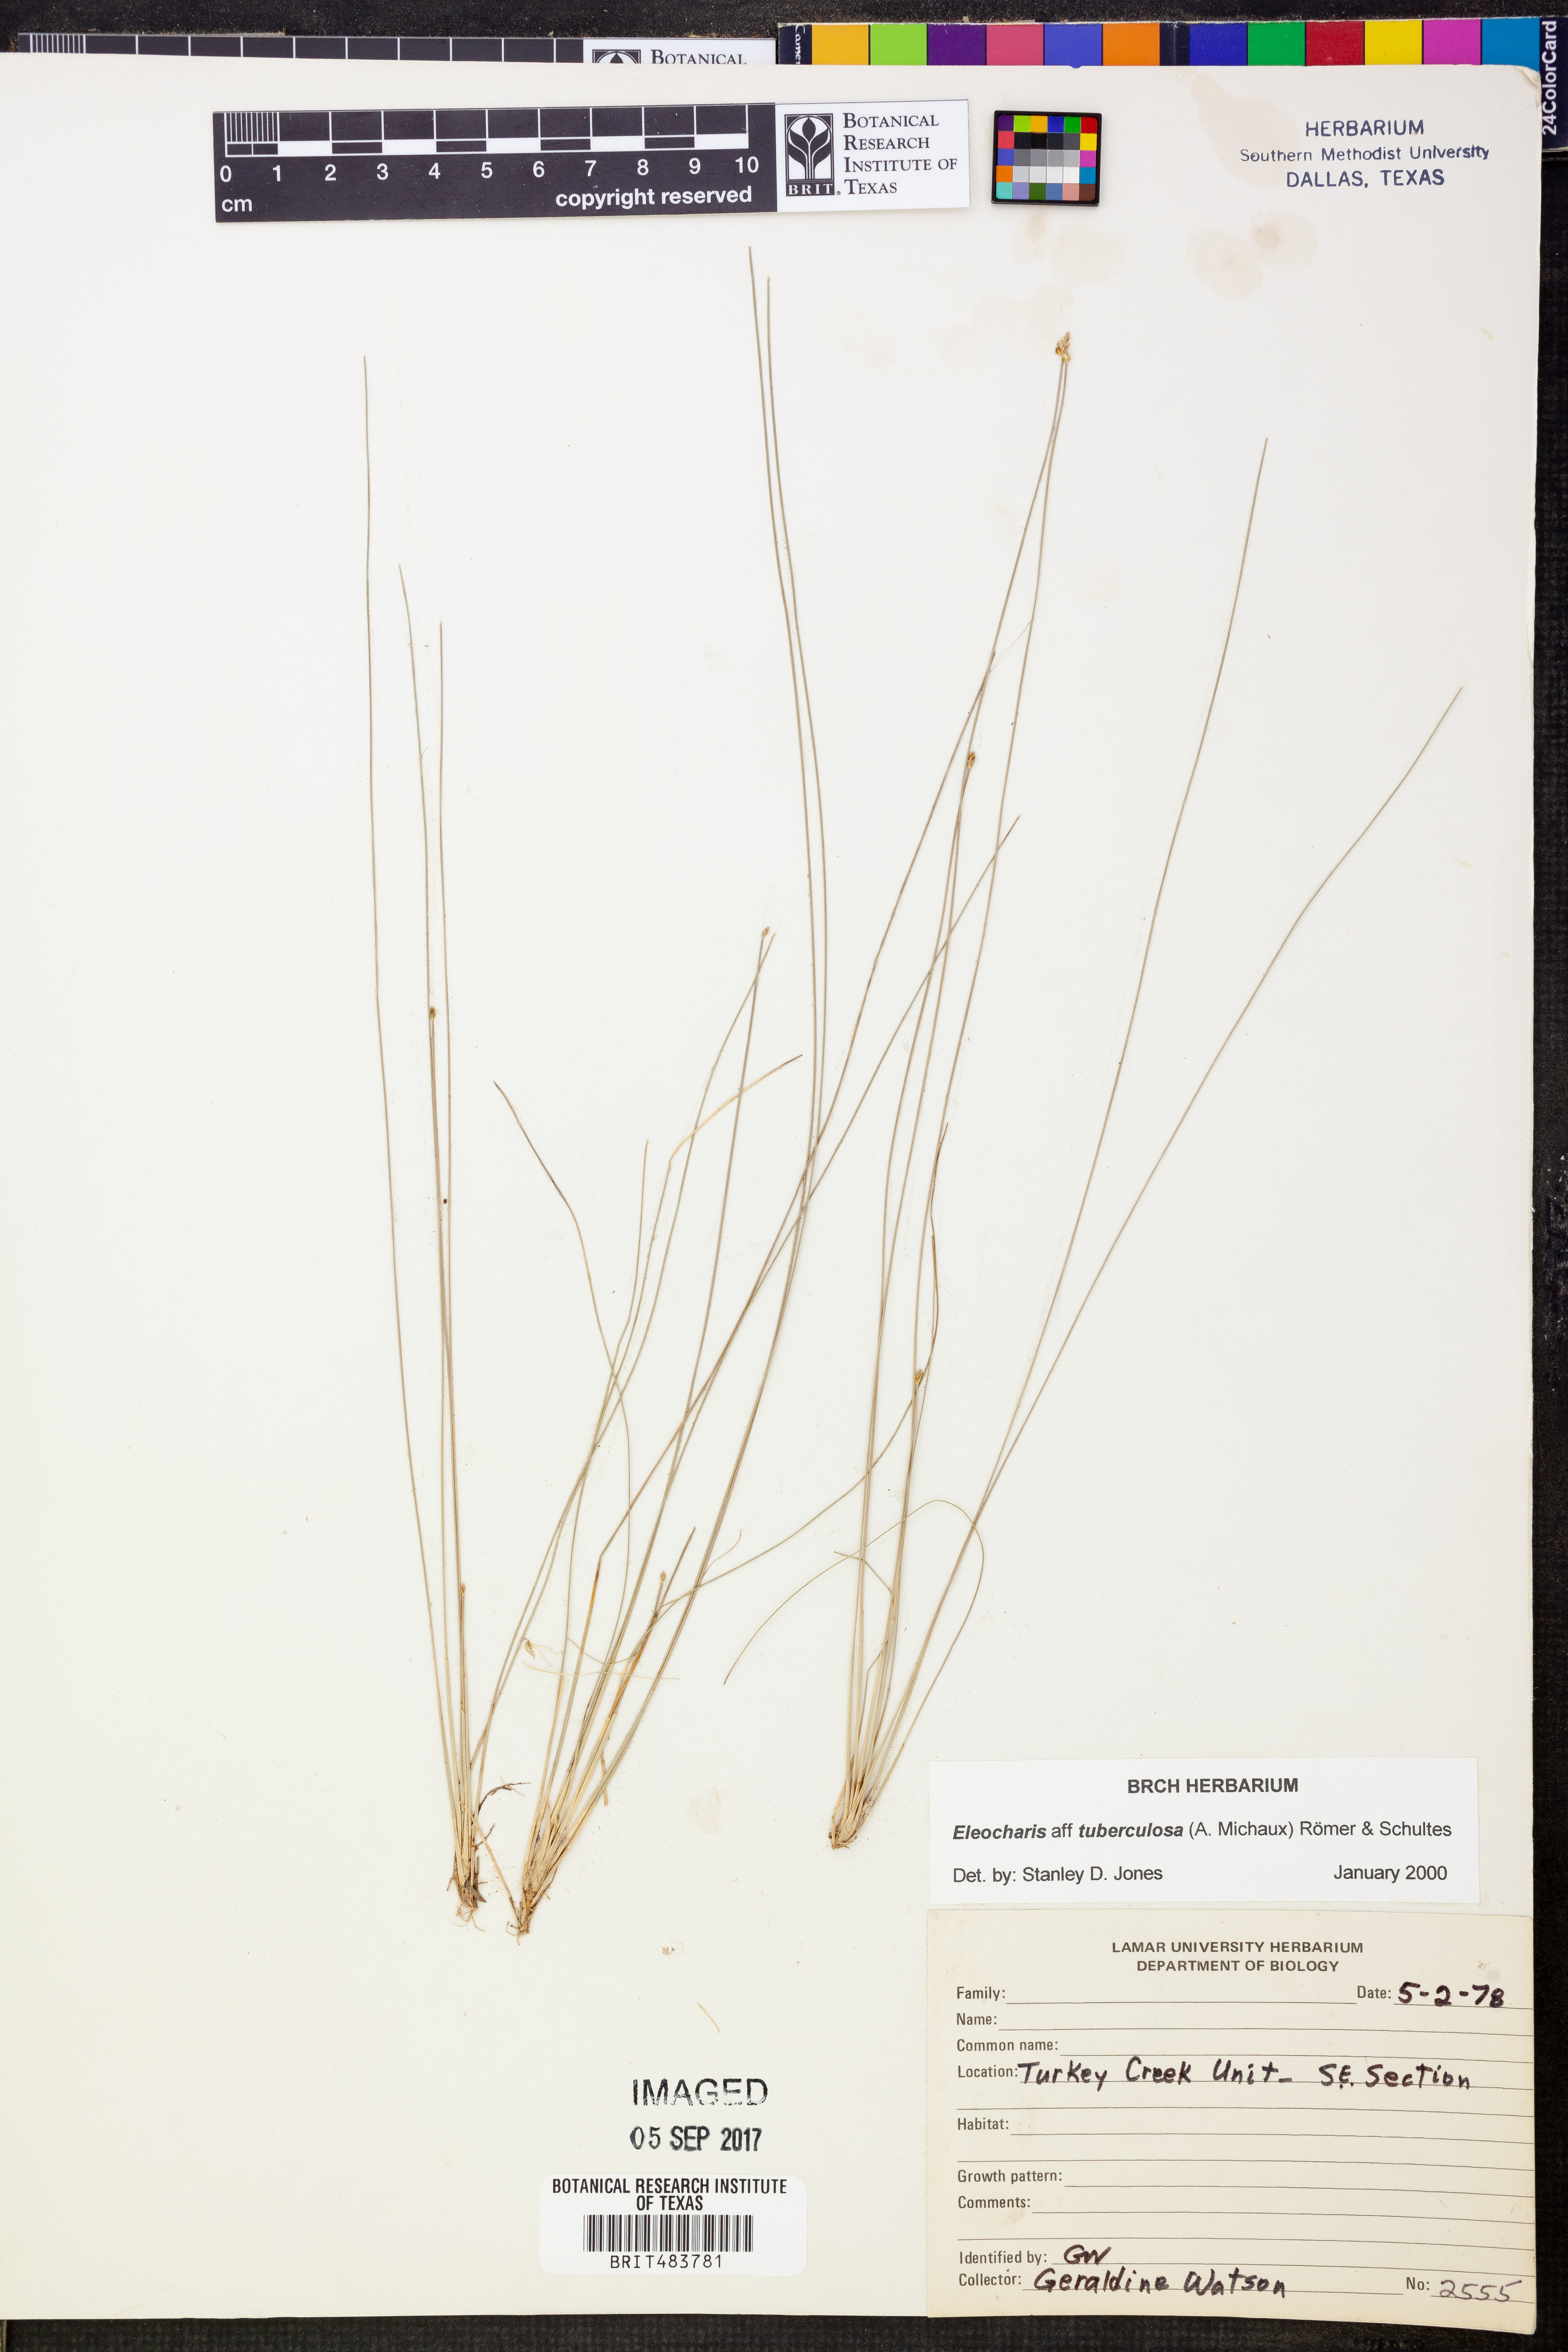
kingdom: Plantae
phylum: Tracheophyta
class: Liliopsida
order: Poales
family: Cyperaceae
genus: Eleocharis
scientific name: Eleocharis tuberculosa
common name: Cone-cup spikerush
